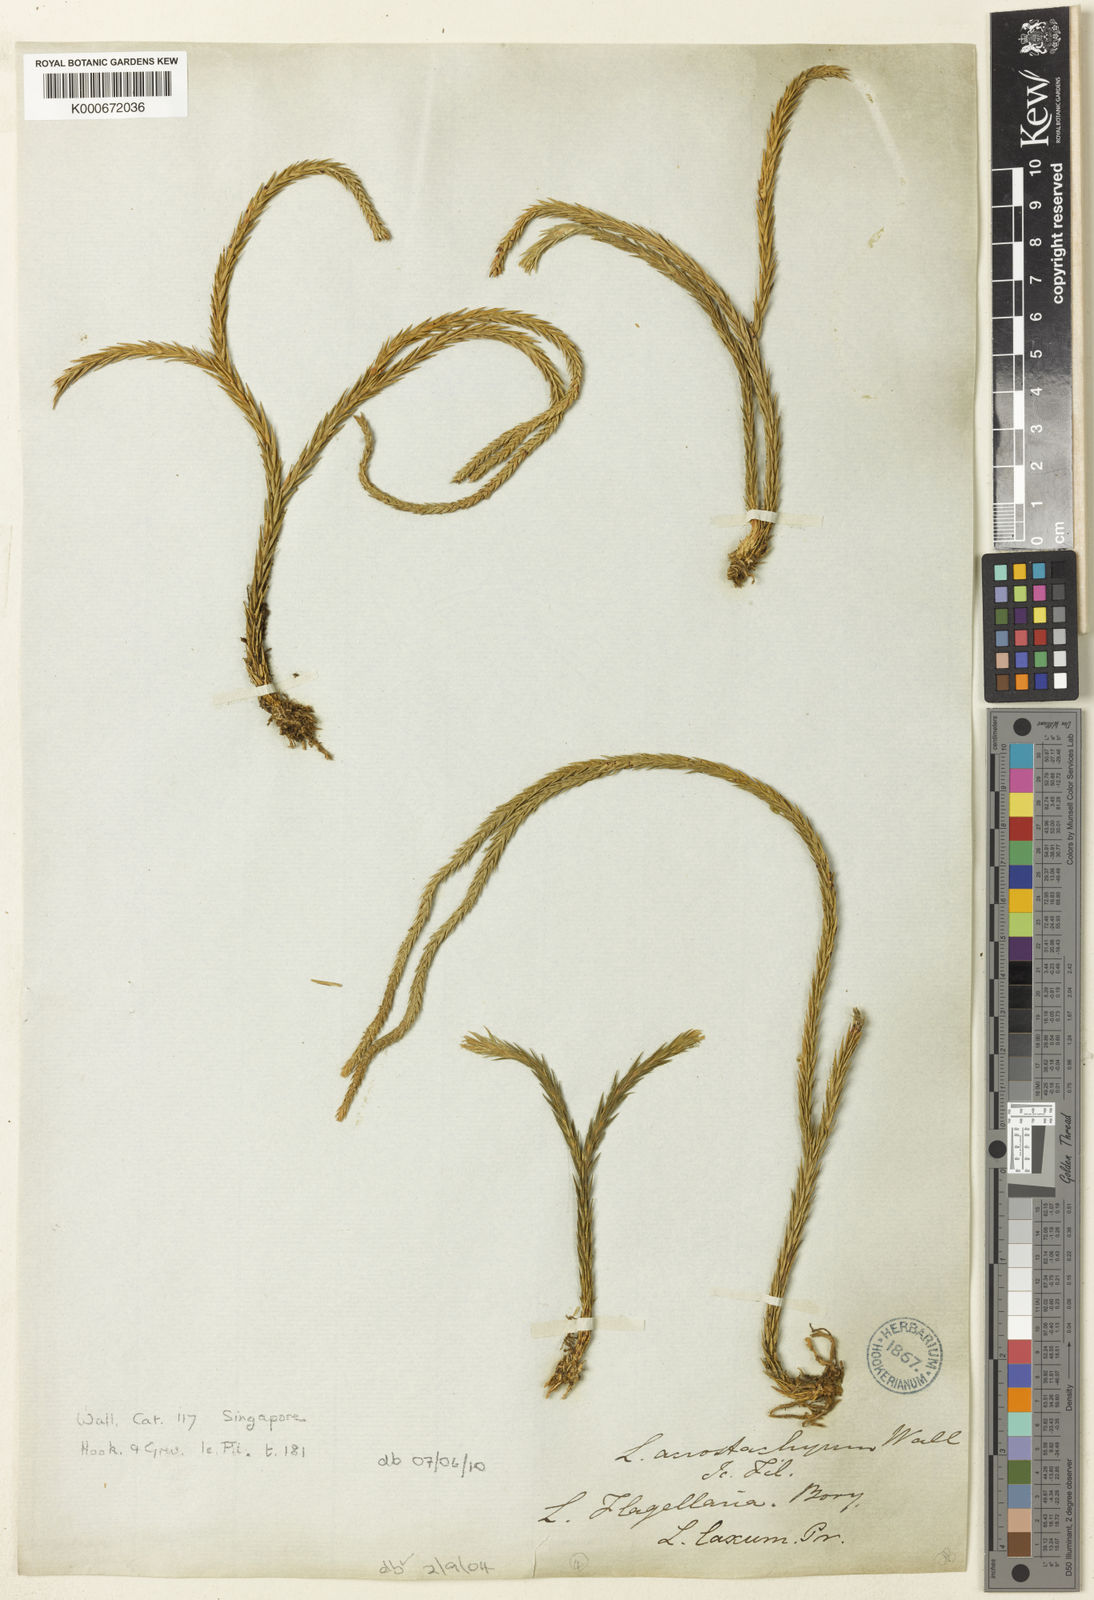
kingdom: Plantae
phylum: Tracheophyta
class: Lycopodiopsida
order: Lycopodiales
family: Lycopodiaceae
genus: Phlegmariurus
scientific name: Phlegmariurus carinatus
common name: Keeled tassel-fern
